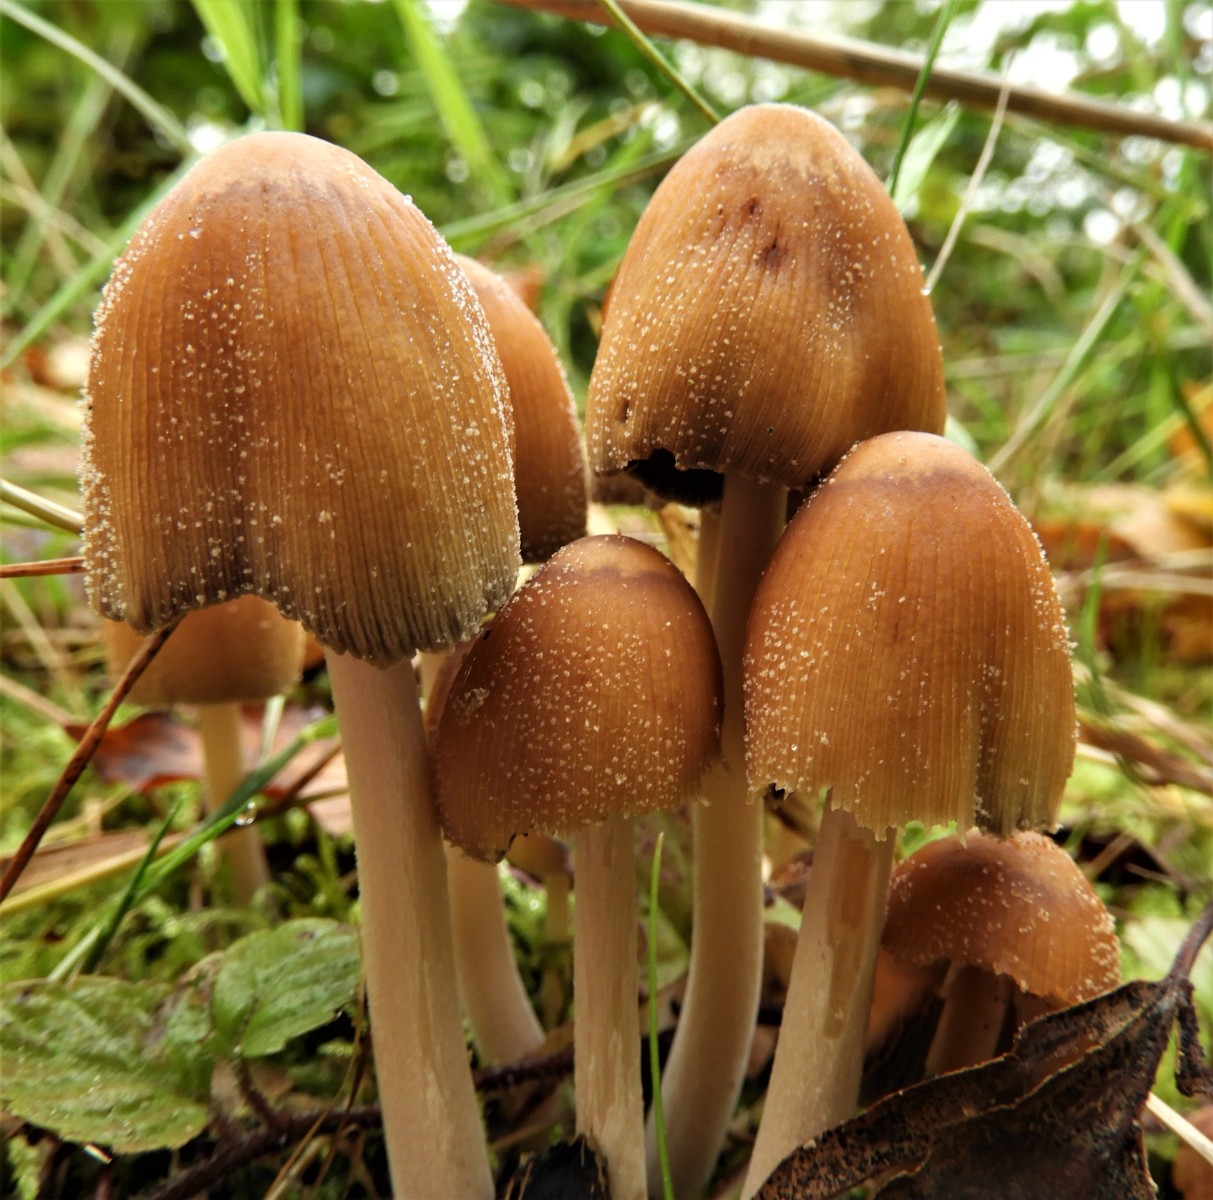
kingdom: Fungi
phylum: Basidiomycota
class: Agaricomycetes
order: Agaricales
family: Psathyrellaceae
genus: Coprinellus
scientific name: Coprinellus micaceus
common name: glimmer-blækhat
